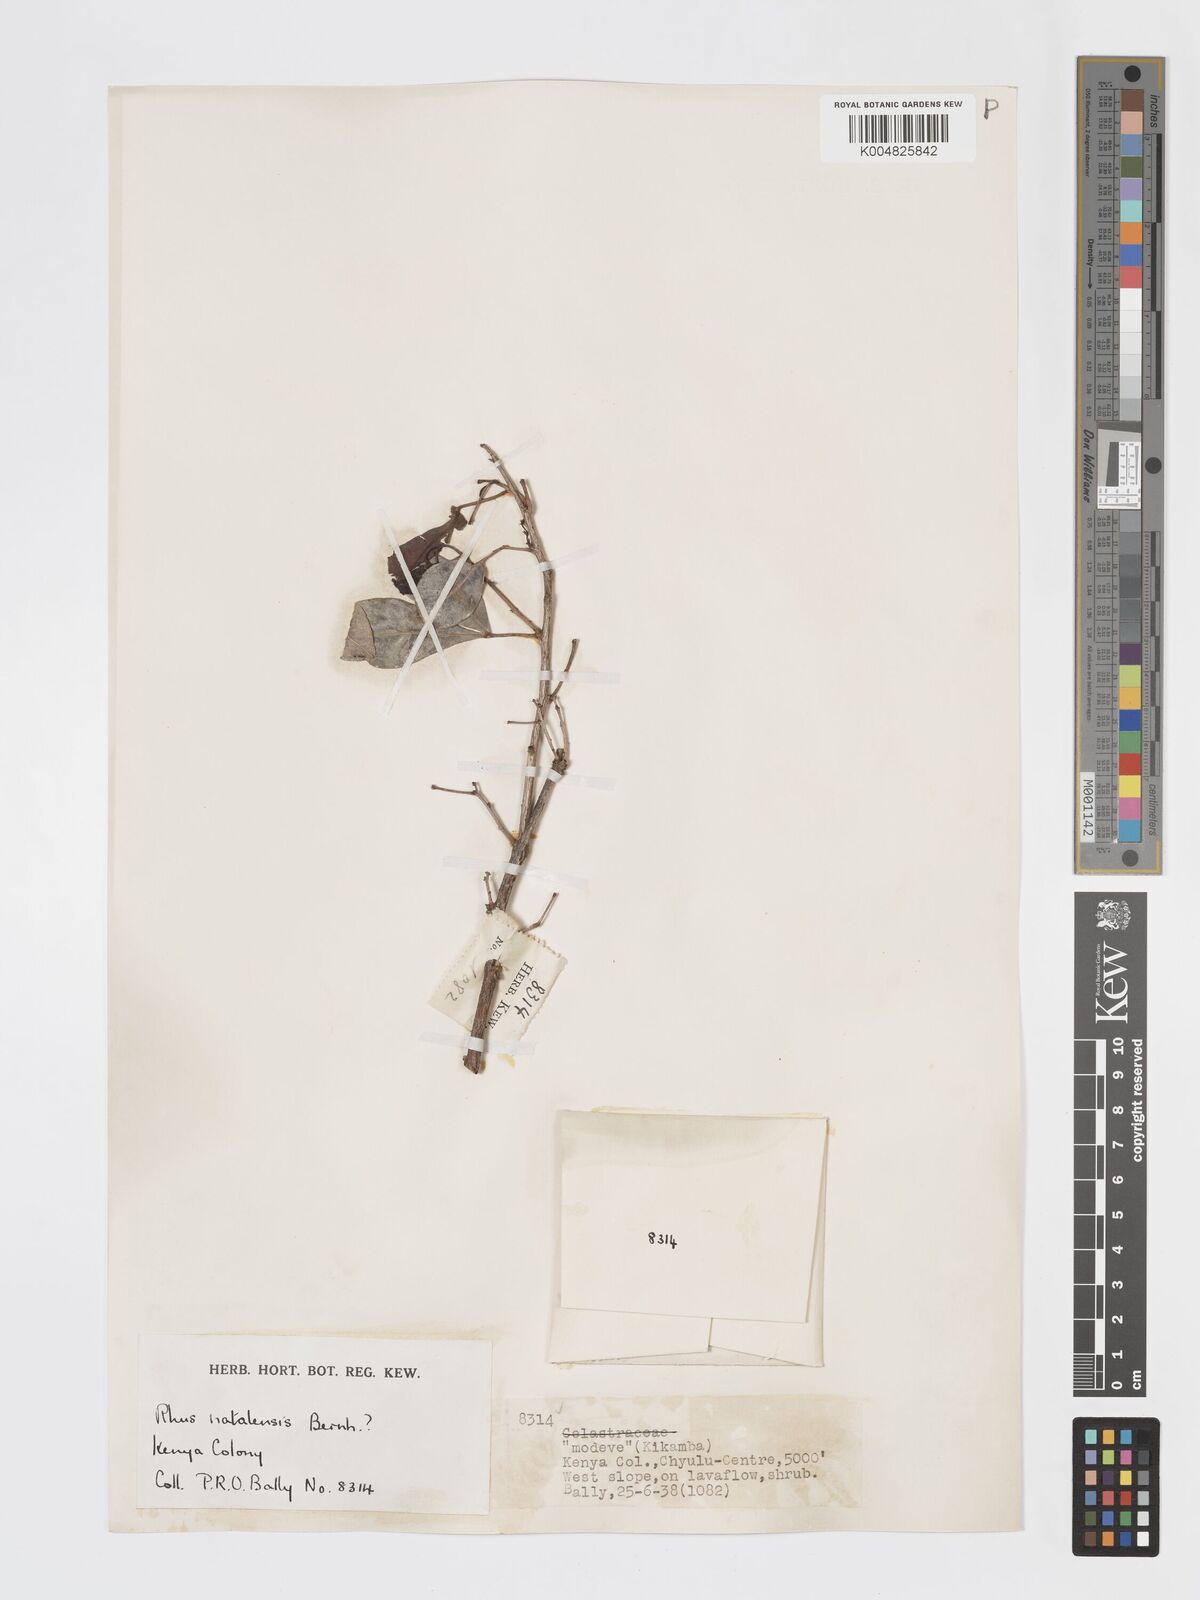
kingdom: Plantae
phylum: Tracheophyta
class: Magnoliopsida
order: Sapindales
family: Anacardiaceae
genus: Searsia
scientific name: Searsia natalensis
